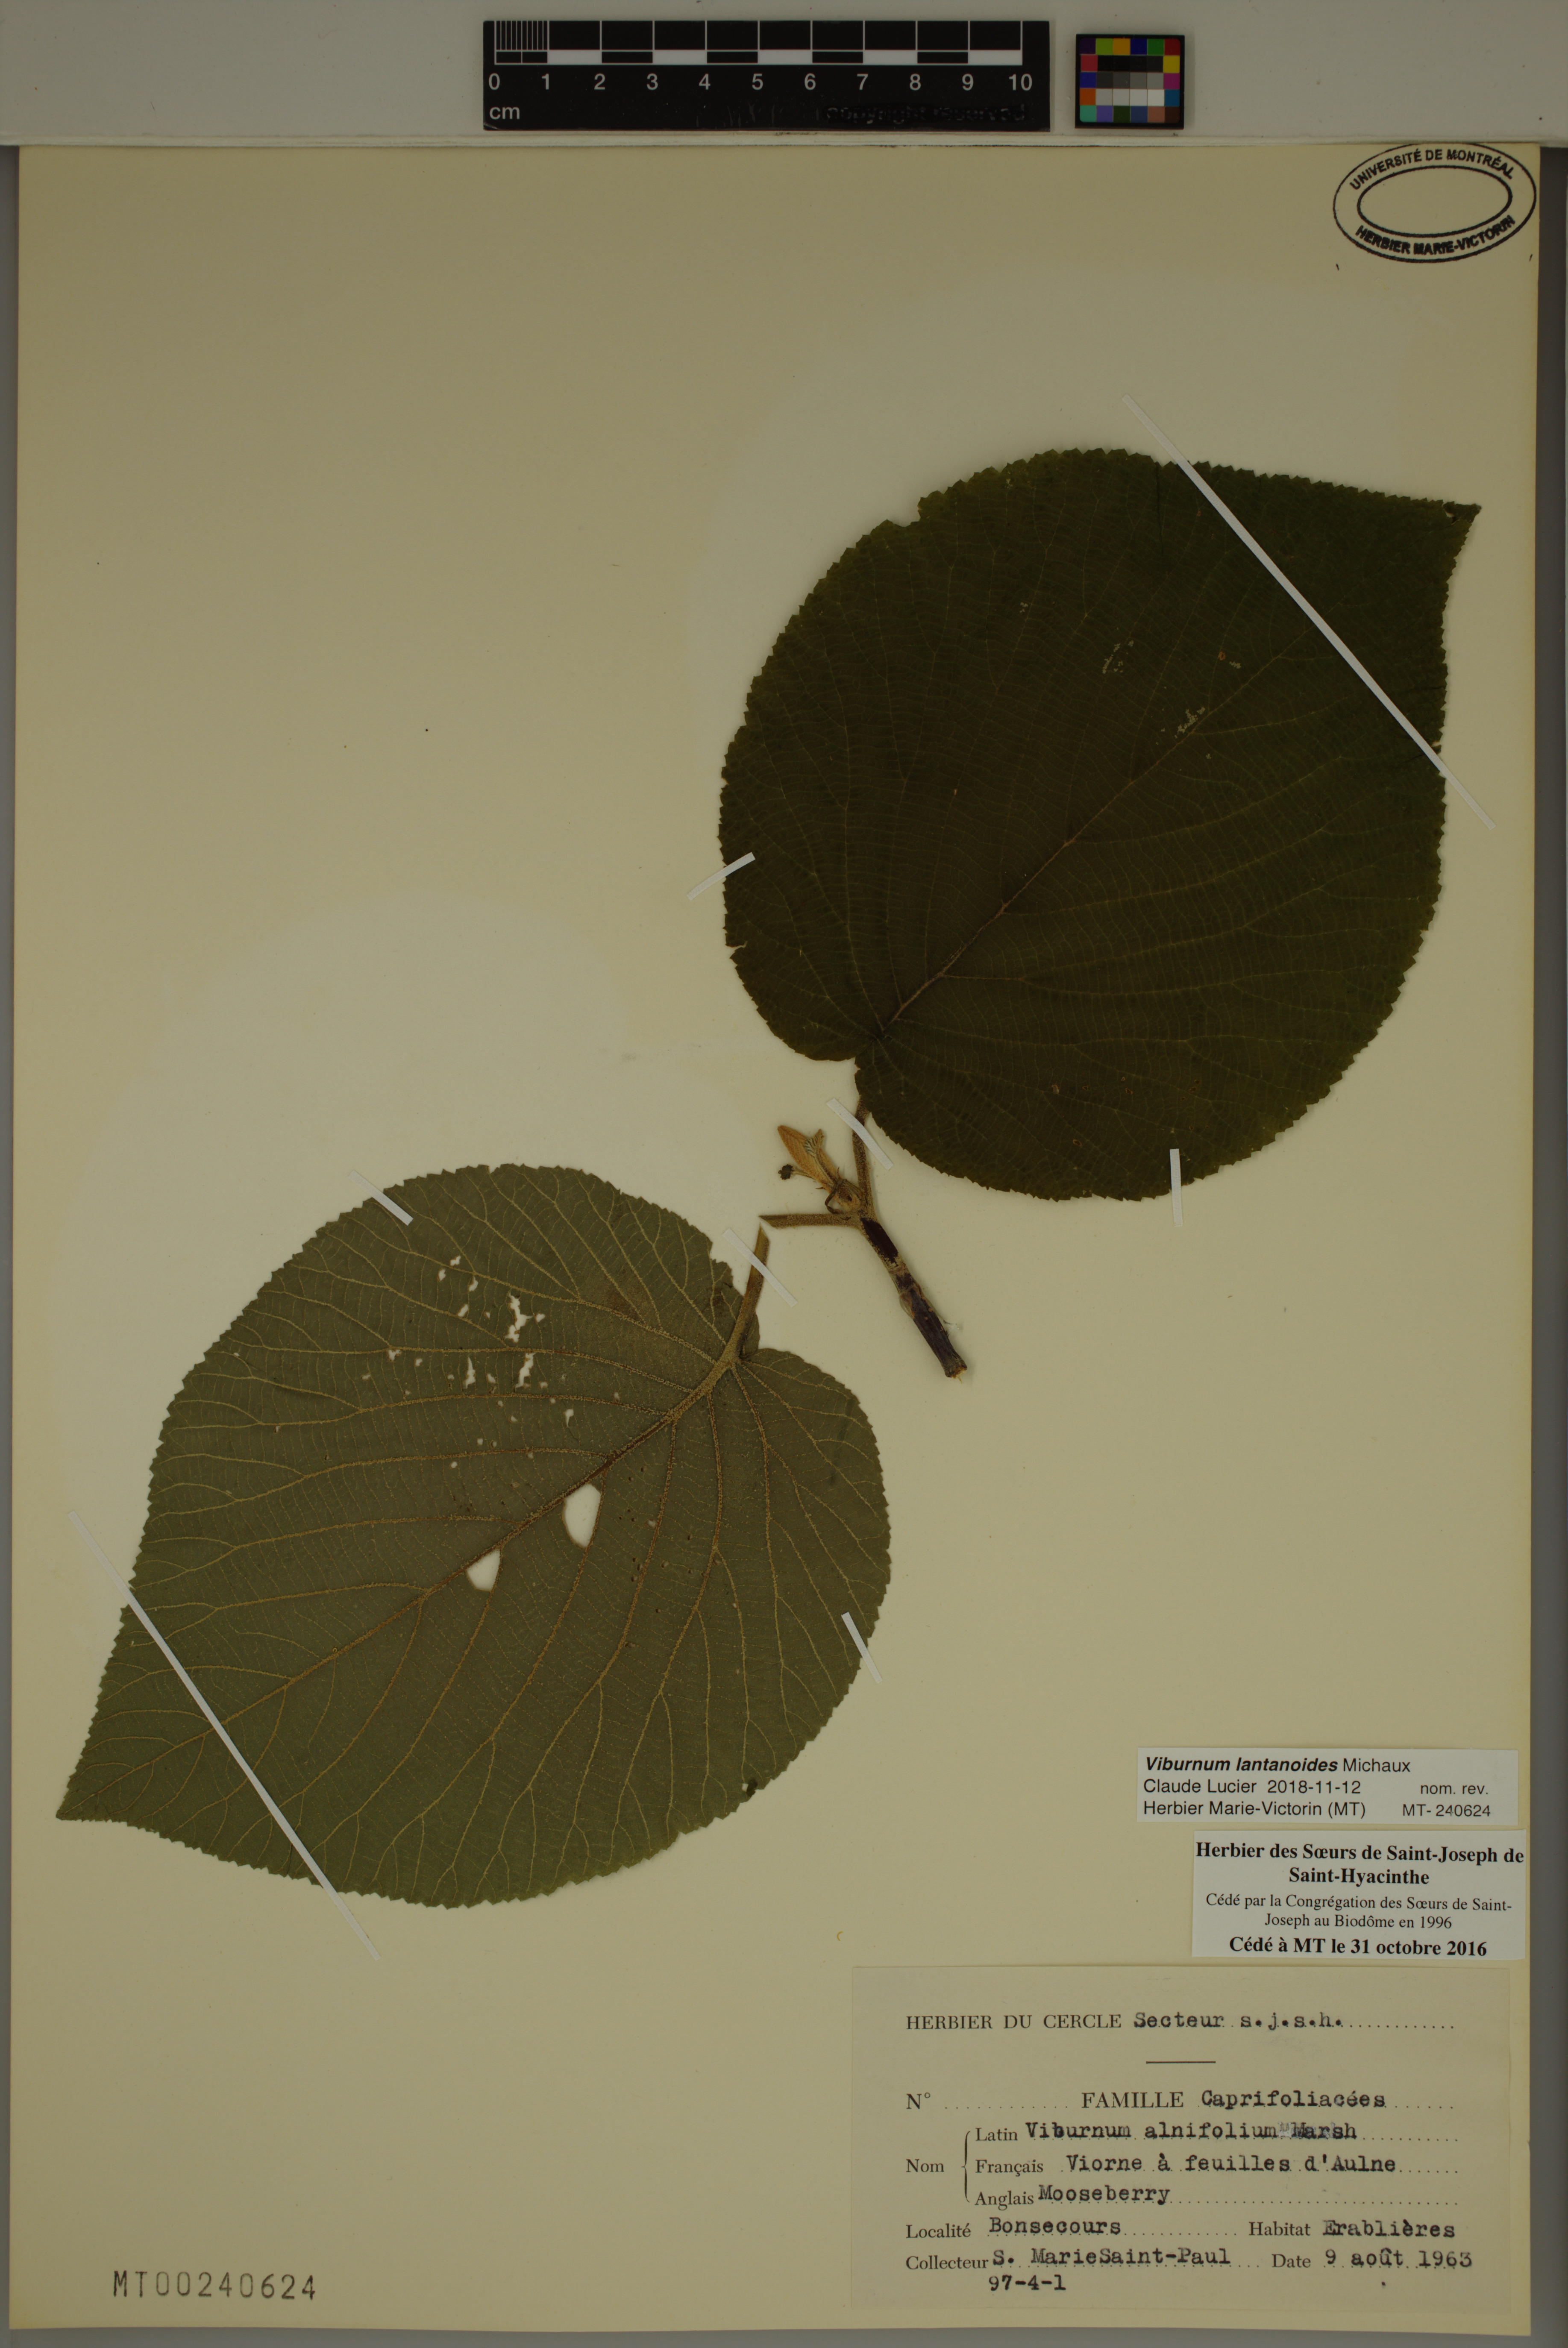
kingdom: Plantae
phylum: Tracheophyta
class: Magnoliopsida
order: Dipsacales
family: Viburnaceae
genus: Viburnum
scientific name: Viburnum lantanoides
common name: Hobblebush
